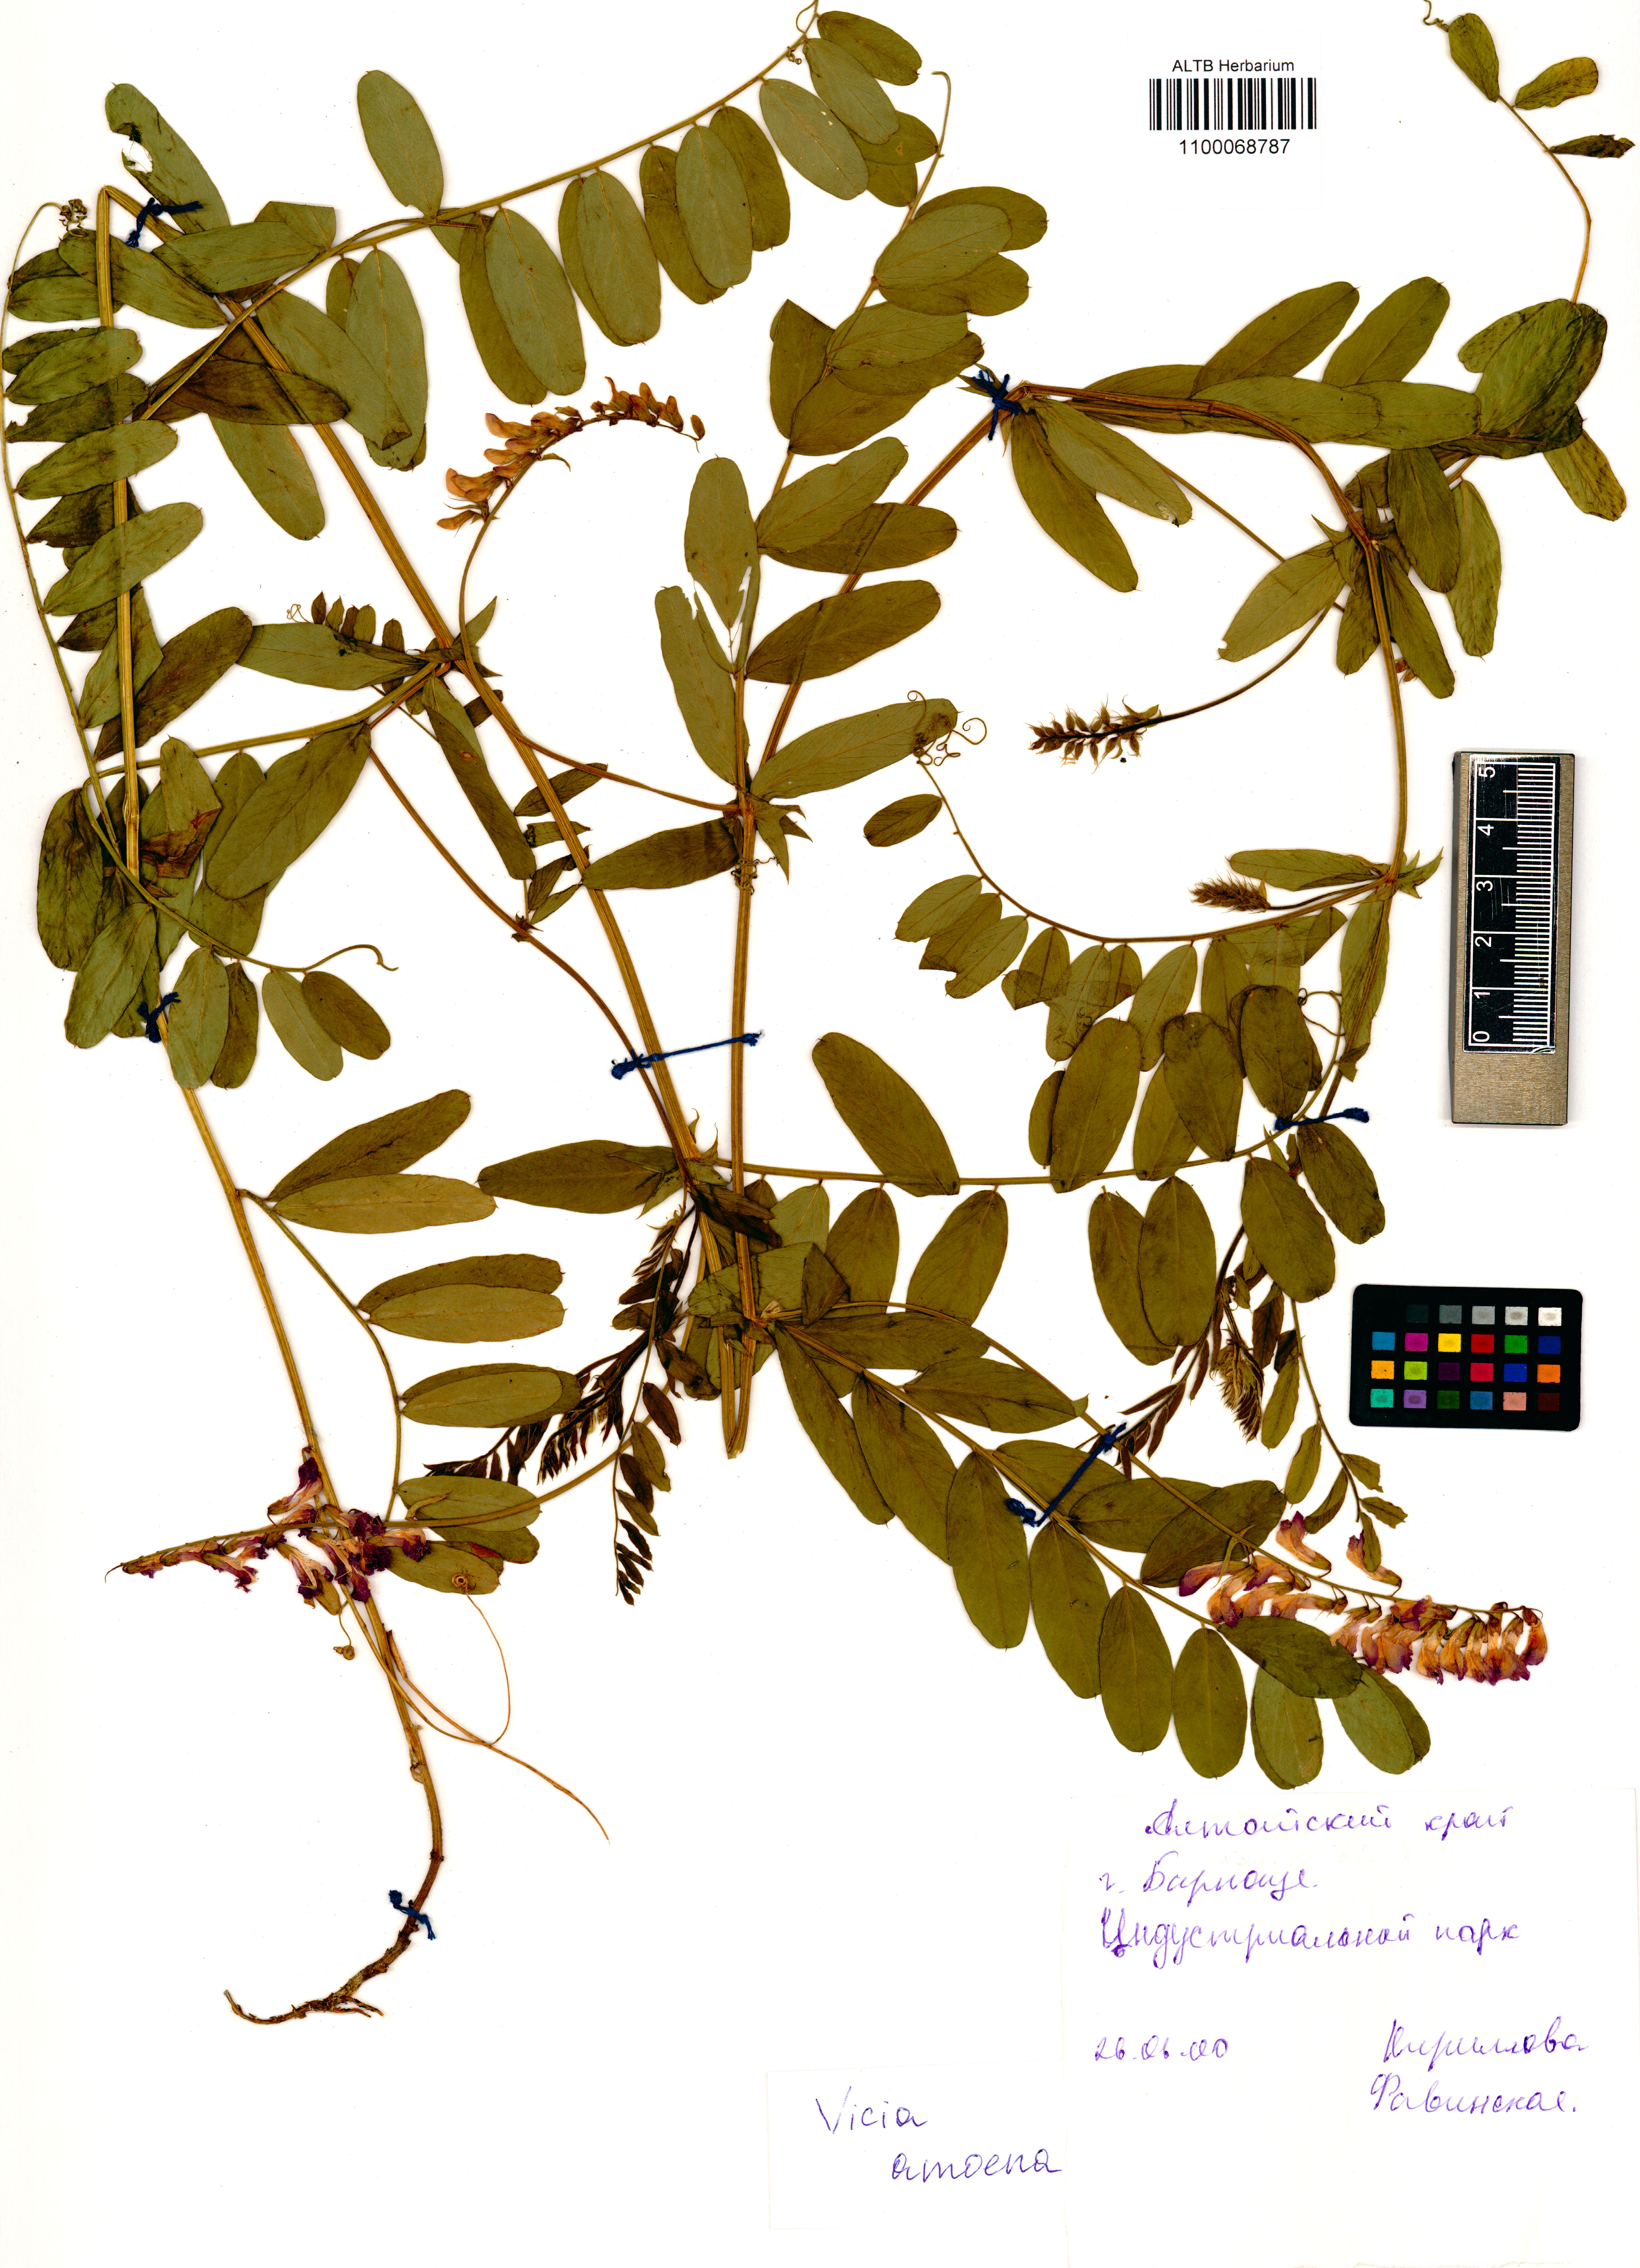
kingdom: Plantae
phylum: Tracheophyta
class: Magnoliopsida
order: Fabales
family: Fabaceae
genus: Vicia
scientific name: Vicia amoena
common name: Cheder ebs
